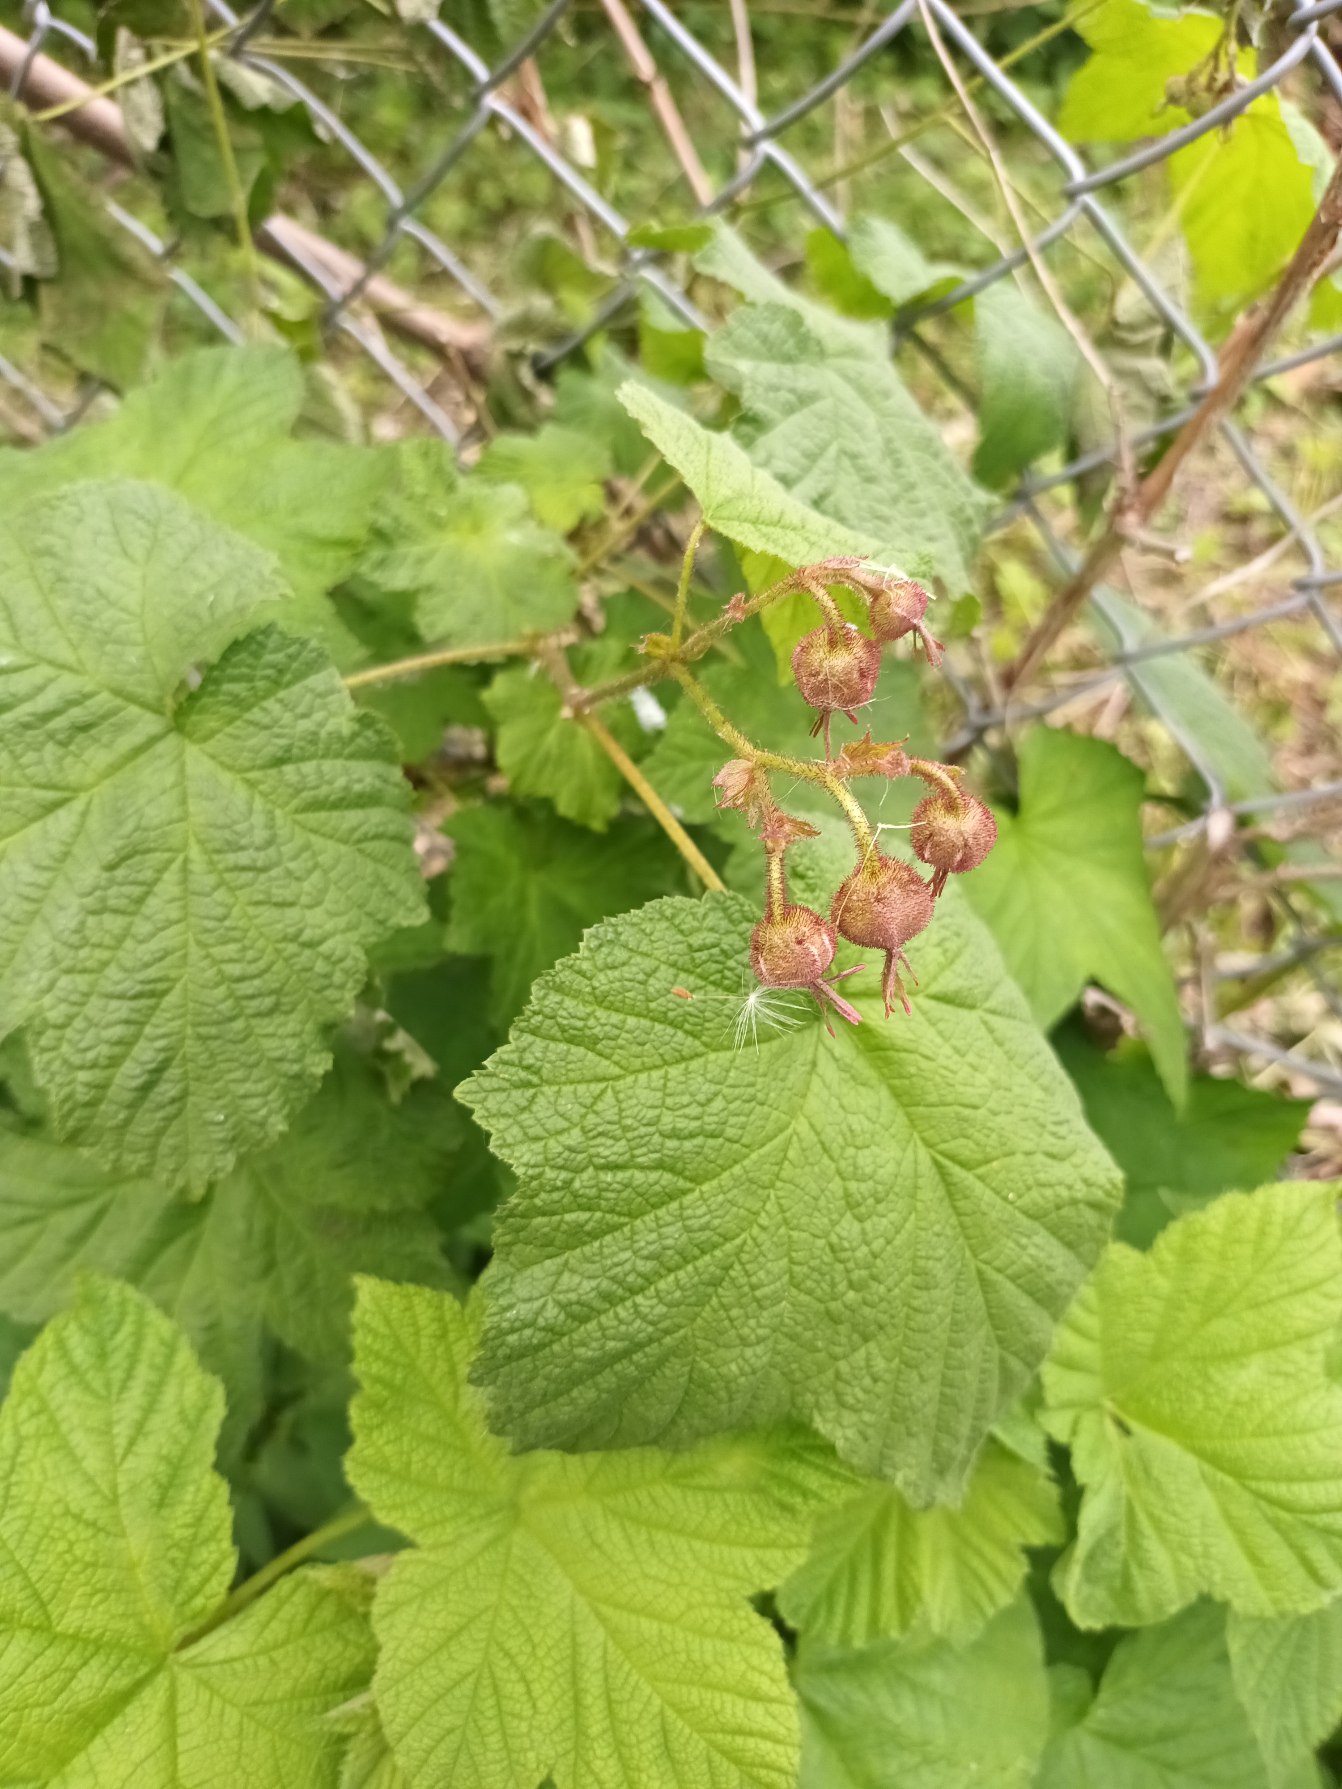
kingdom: Plantae
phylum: Tracheophyta
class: Magnoliopsida
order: Rosales
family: Rosaceae
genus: Rubus
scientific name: Rubus odoratus
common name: Rosen-brombær
